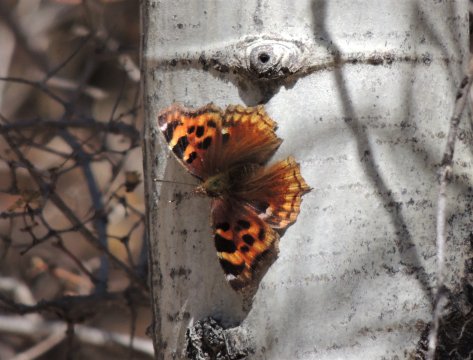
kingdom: Animalia
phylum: Arthropoda
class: Insecta
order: Lepidoptera
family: Nymphalidae
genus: Polygonia
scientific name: Polygonia vaualbum
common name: Compton Tortoiseshell
